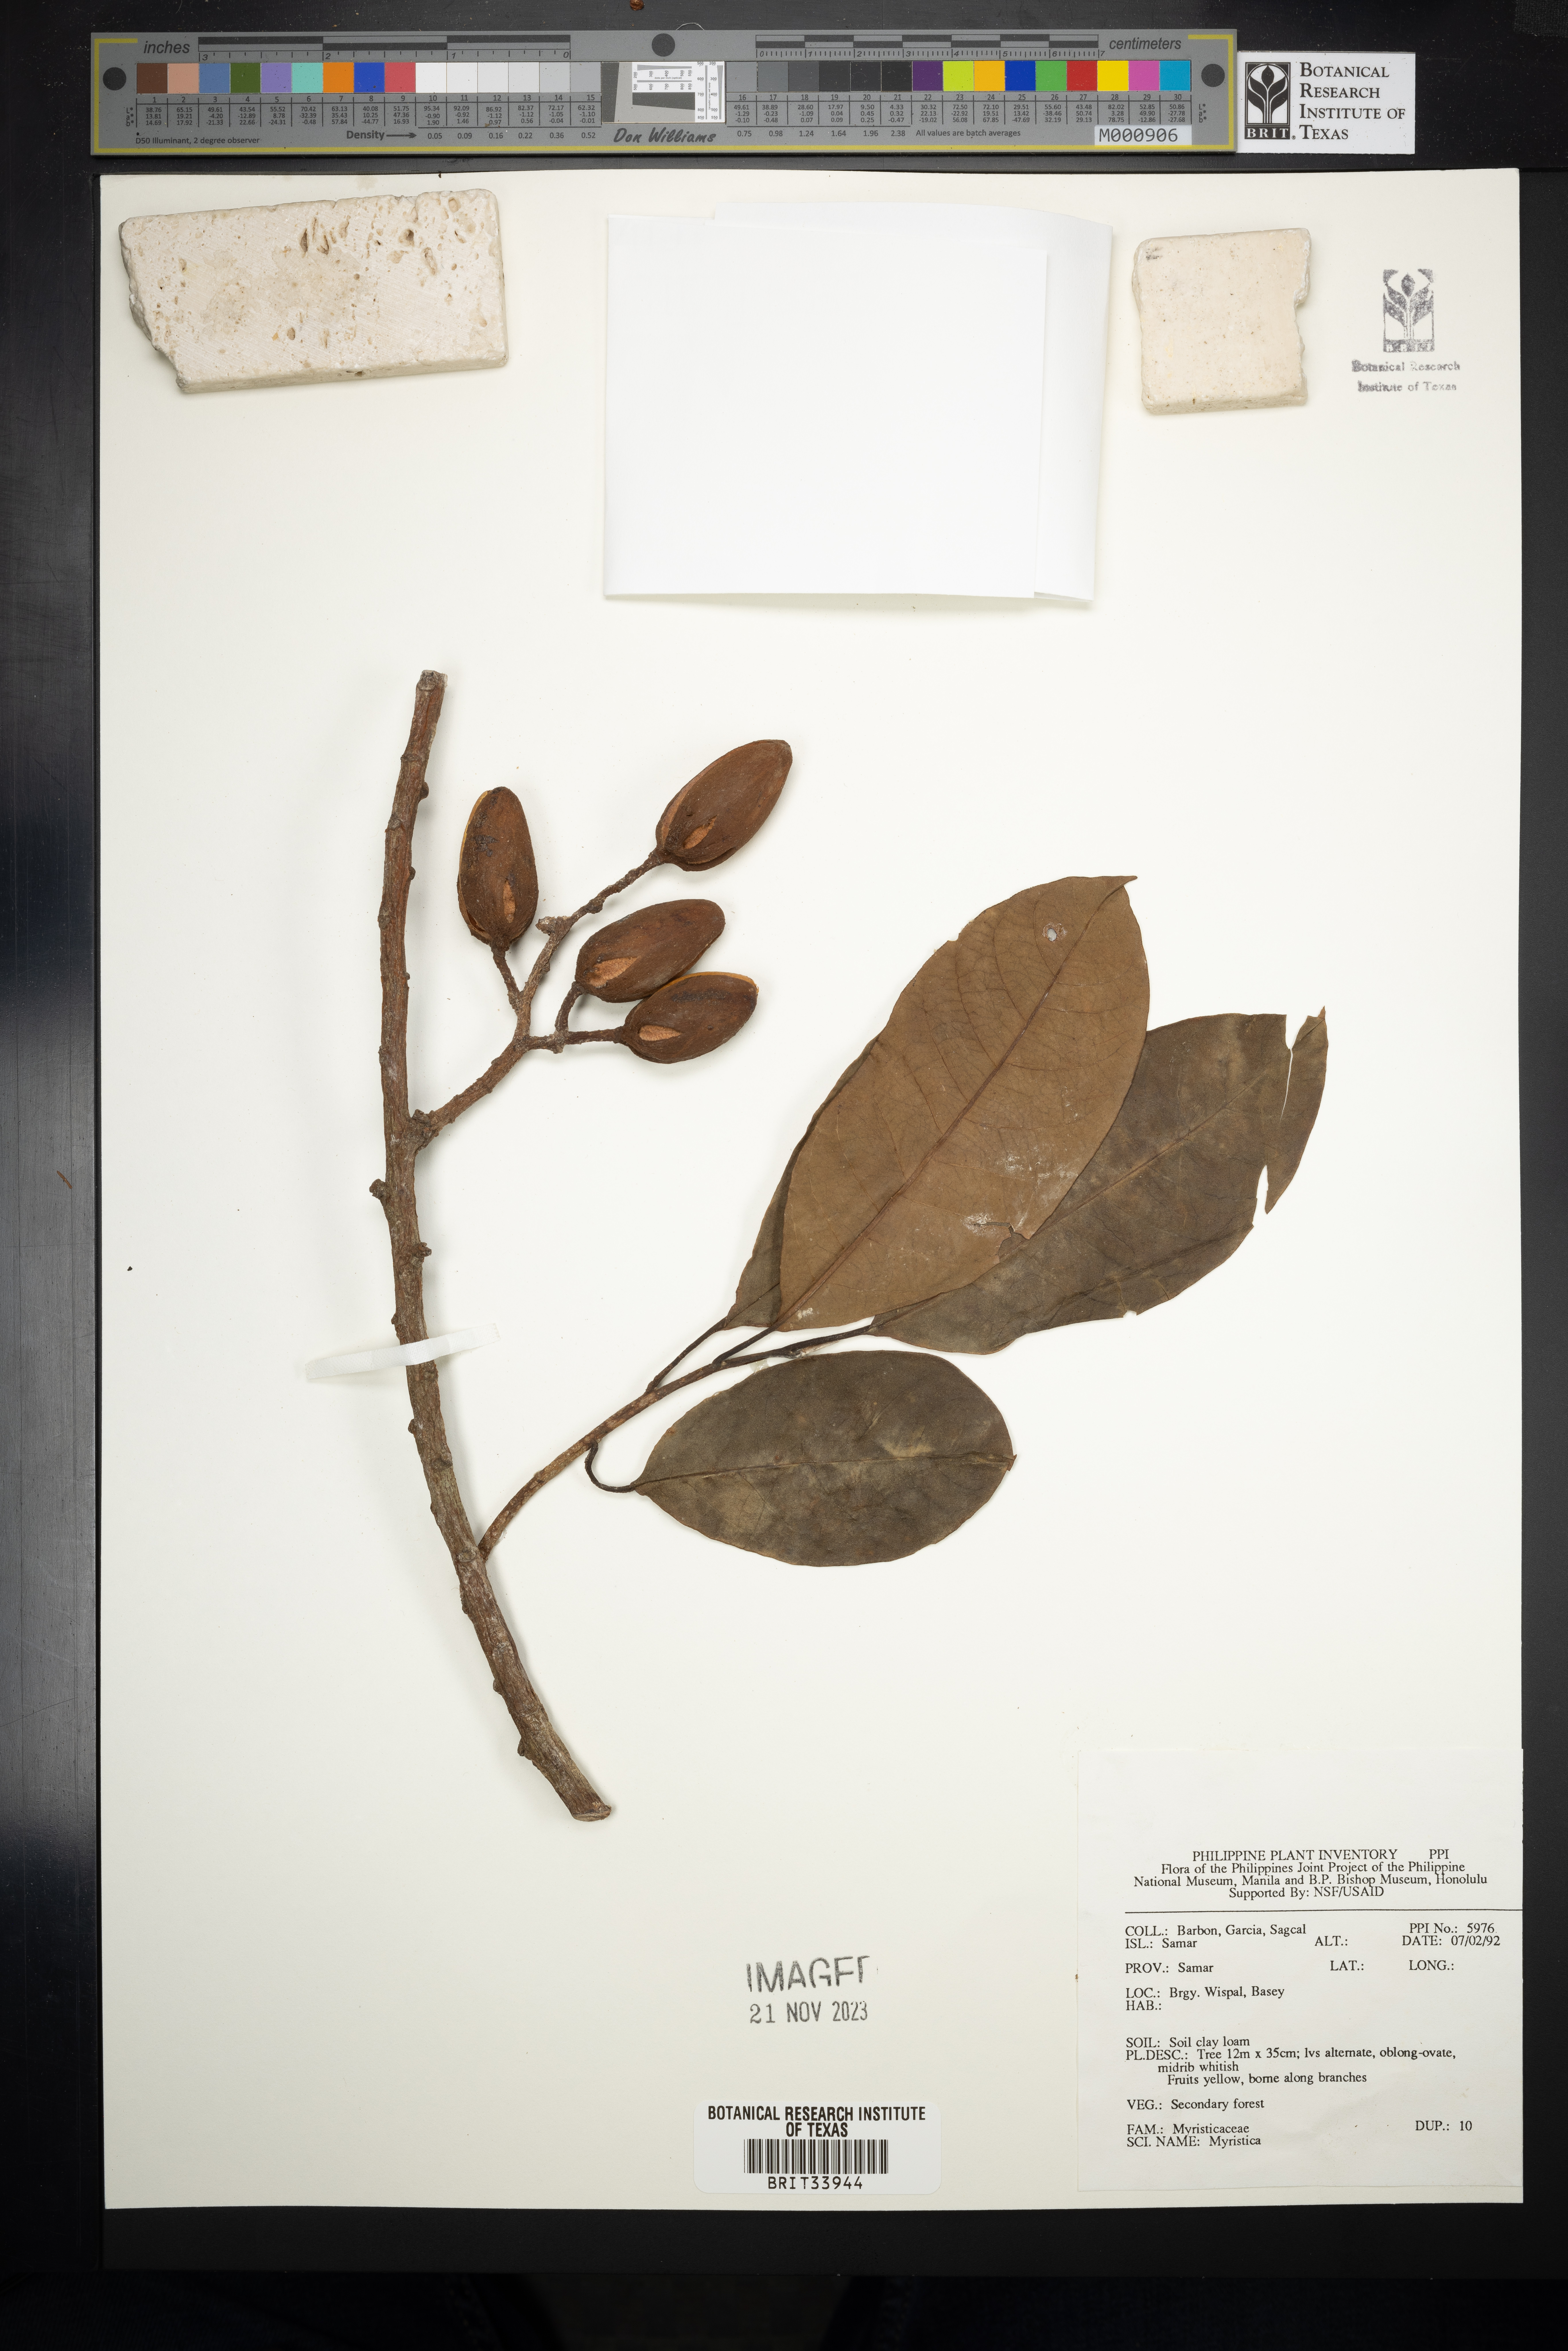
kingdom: Plantae
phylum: Tracheophyta
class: Magnoliopsida
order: Magnoliales
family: Myristicaceae
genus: Myristica
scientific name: Myristica
